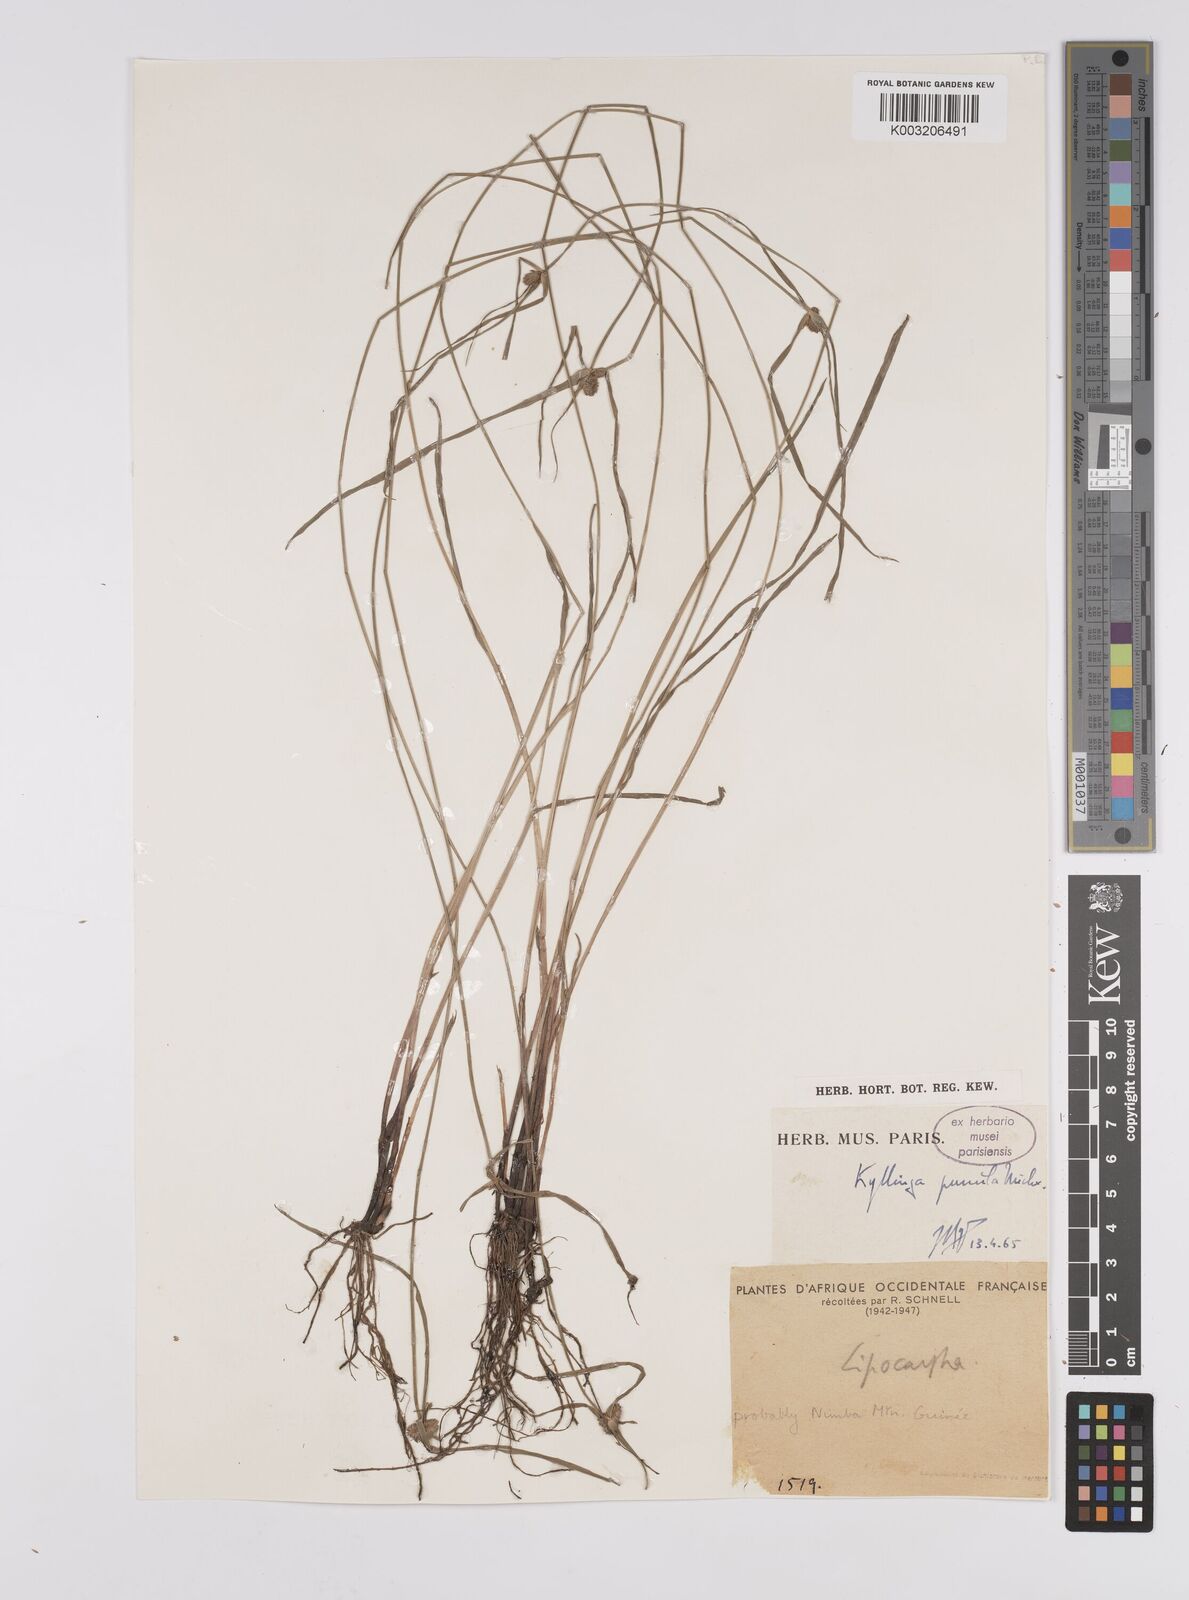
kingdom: Plantae
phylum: Tracheophyta
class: Liliopsida
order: Poales
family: Cyperaceae
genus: Cyperus
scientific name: Cyperus
